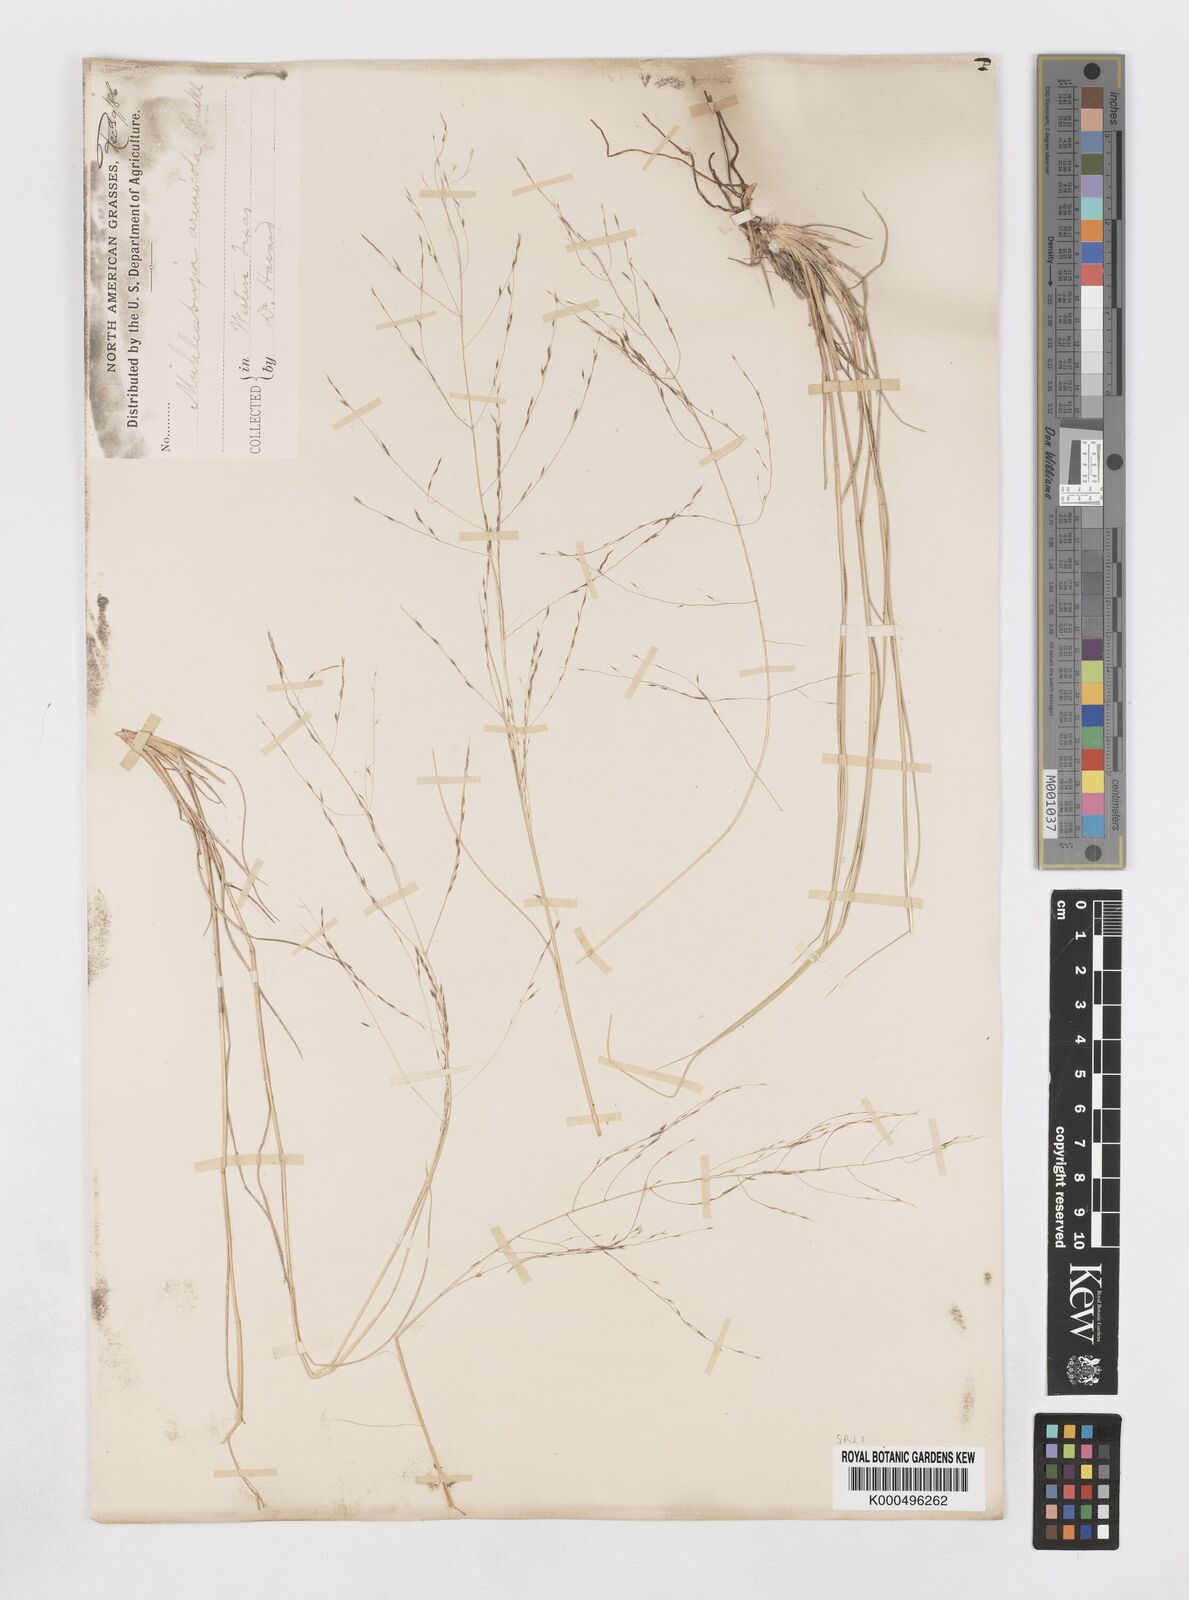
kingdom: Plantae
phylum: Tracheophyta
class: Liliopsida
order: Poales
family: Poaceae
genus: Muhlenbergia
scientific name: Muhlenbergia arenicola
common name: Sand muhly
